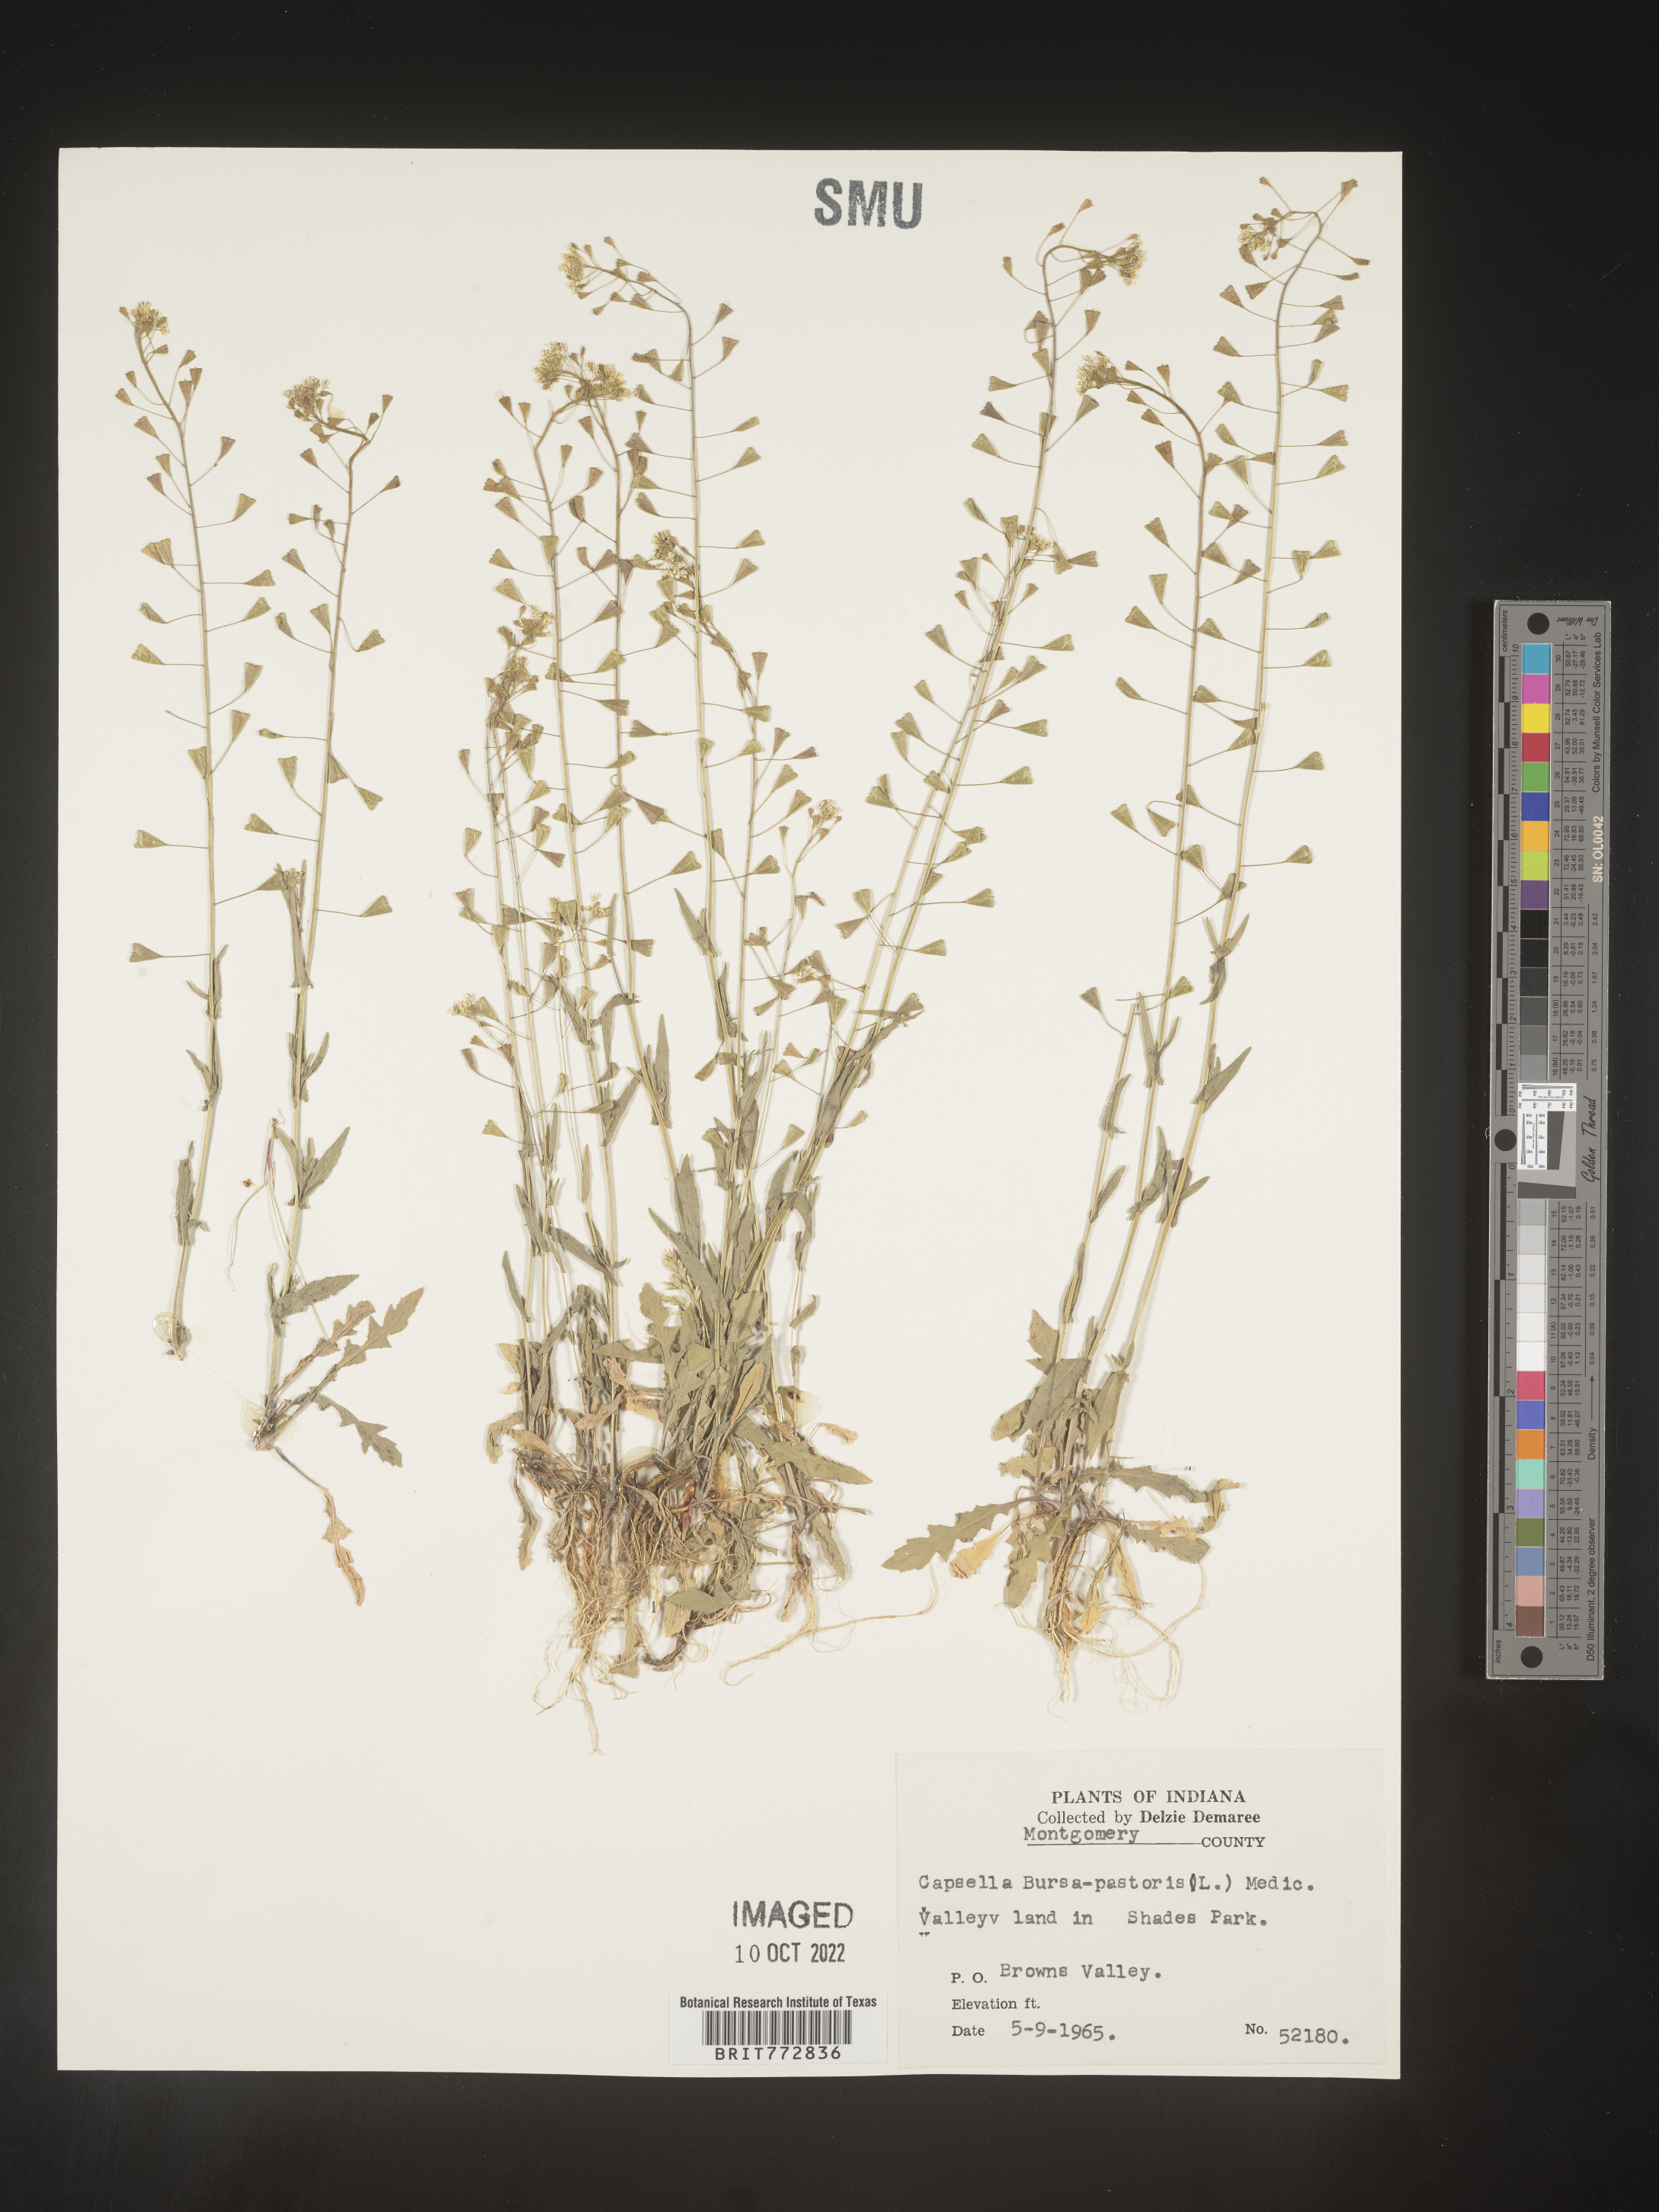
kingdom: Plantae
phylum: Tracheophyta
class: Magnoliopsida
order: Brassicales
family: Brassicaceae
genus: Capsella
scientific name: Capsella bursa-pastoris
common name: Shepherd's purse
